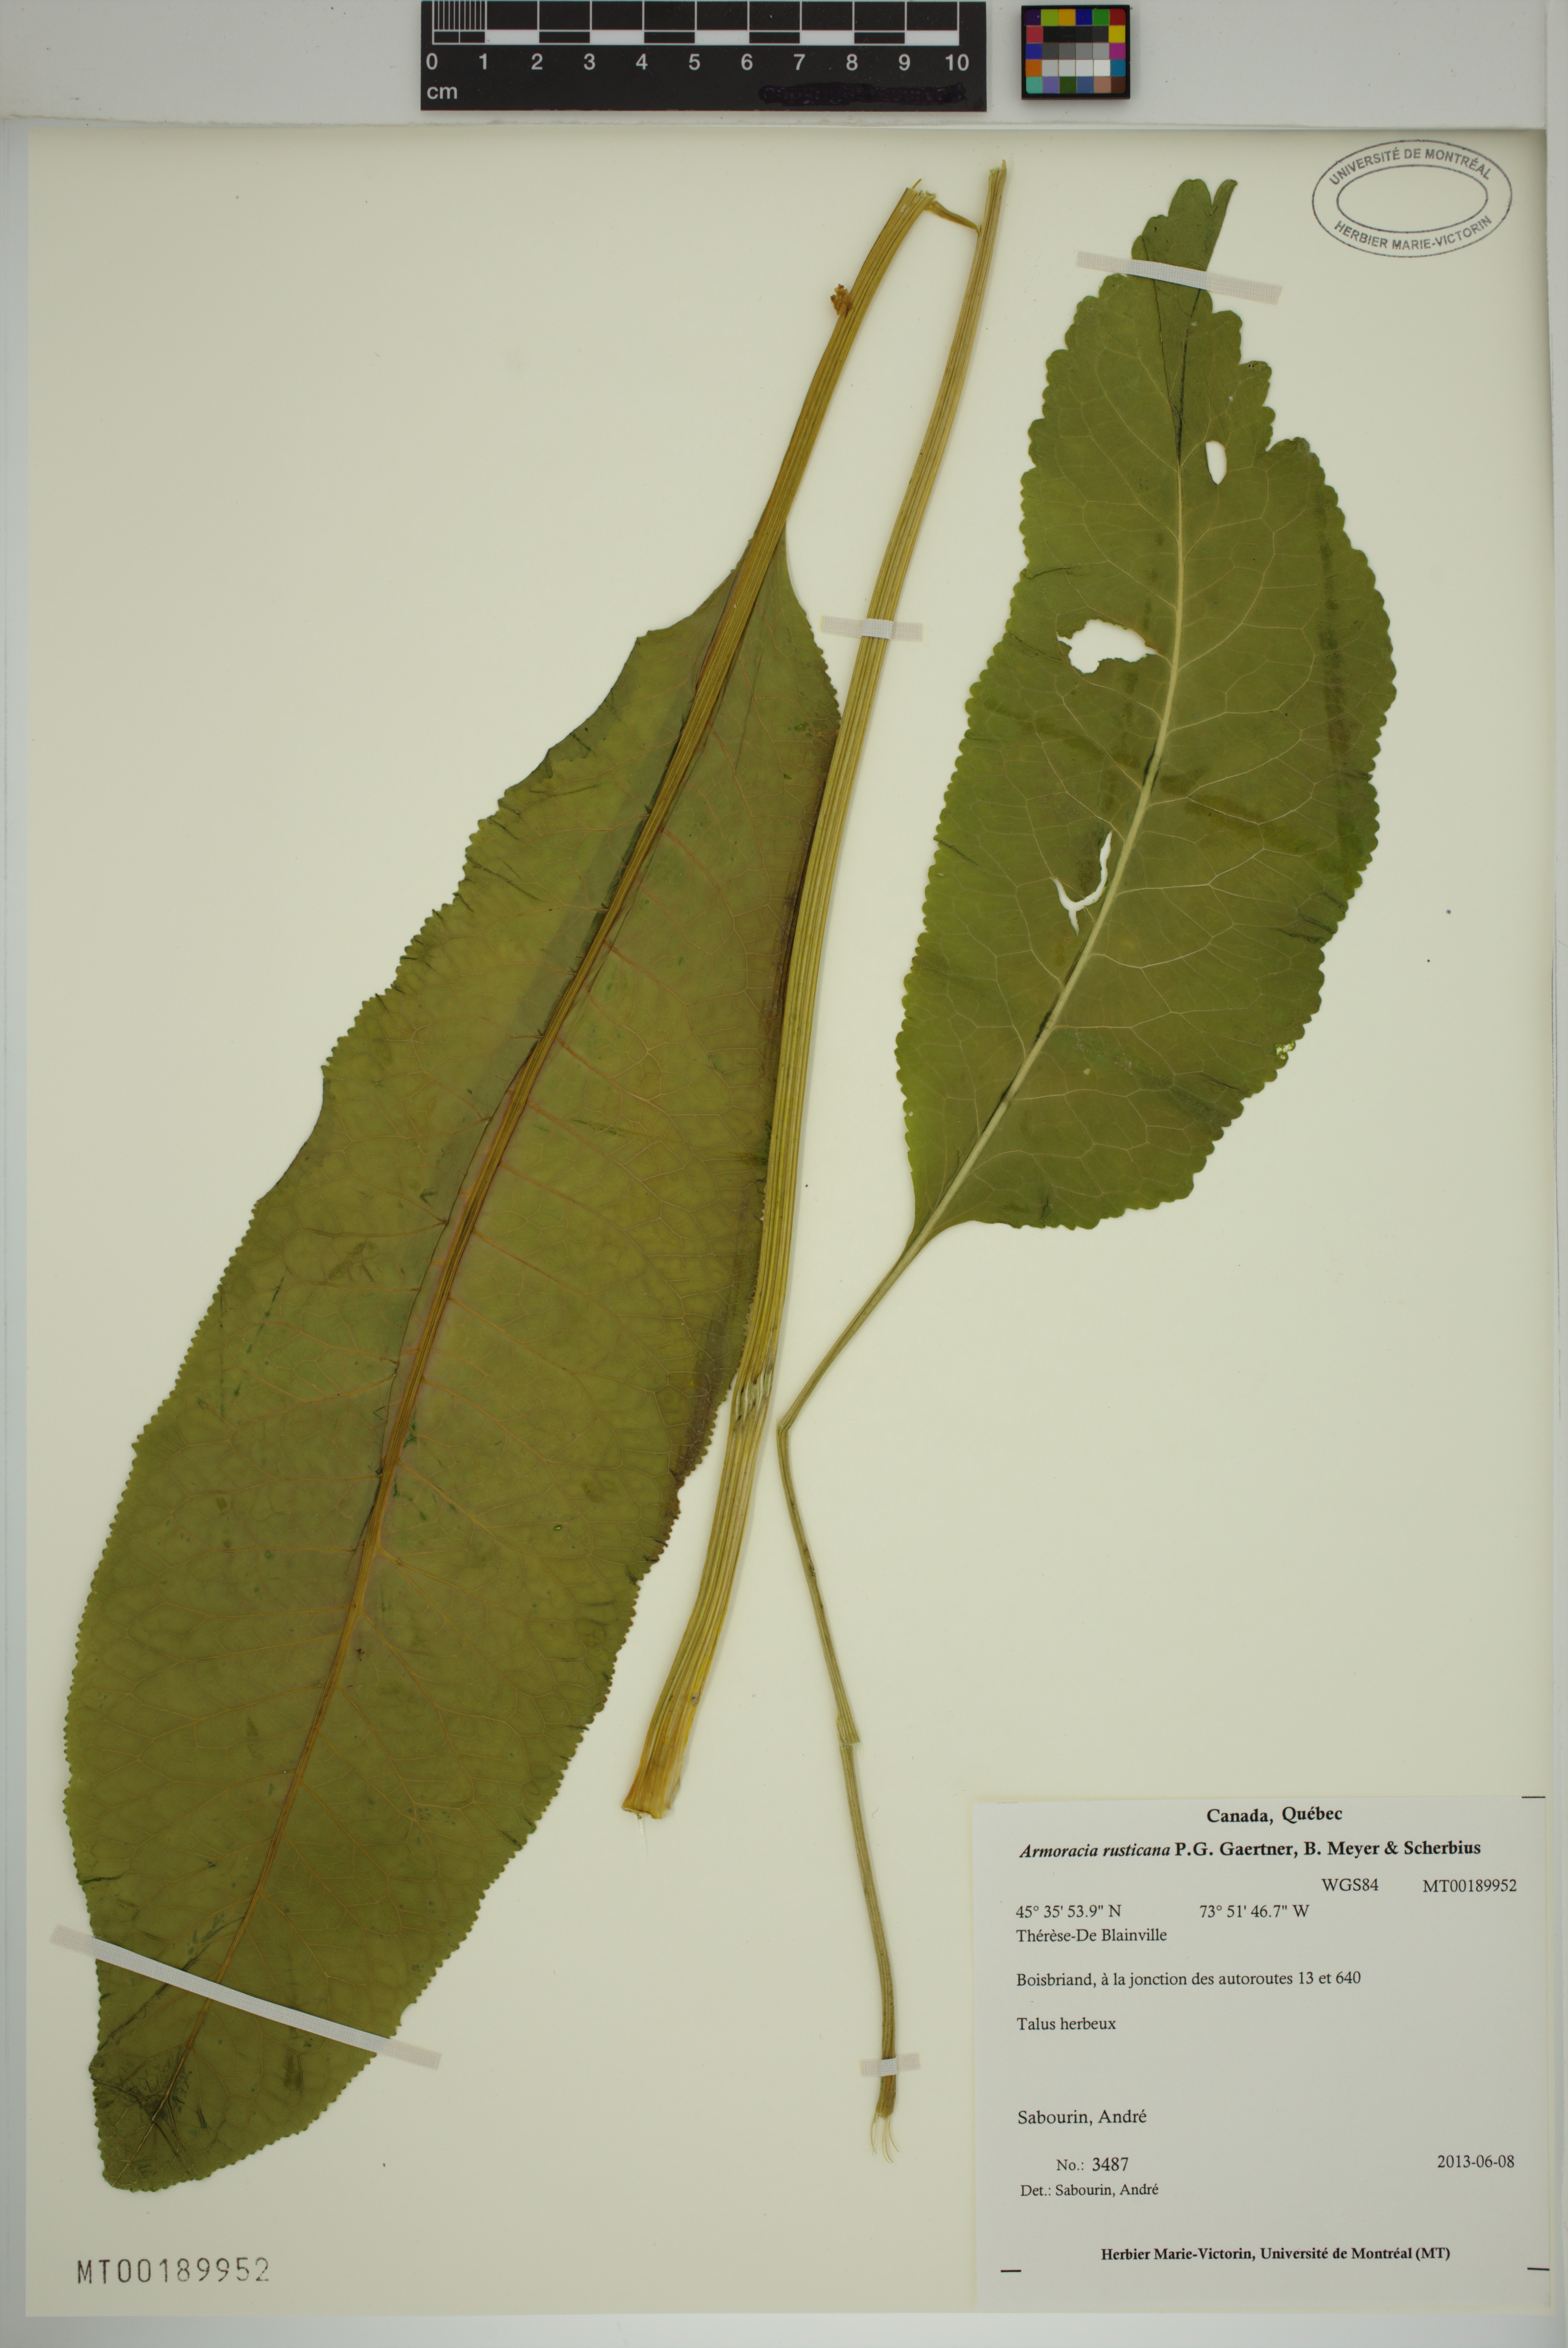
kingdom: Plantae
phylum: Tracheophyta
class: Magnoliopsida
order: Brassicales
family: Brassicaceae
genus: Armoracia
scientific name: Armoracia rusticana
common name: Horseradish
